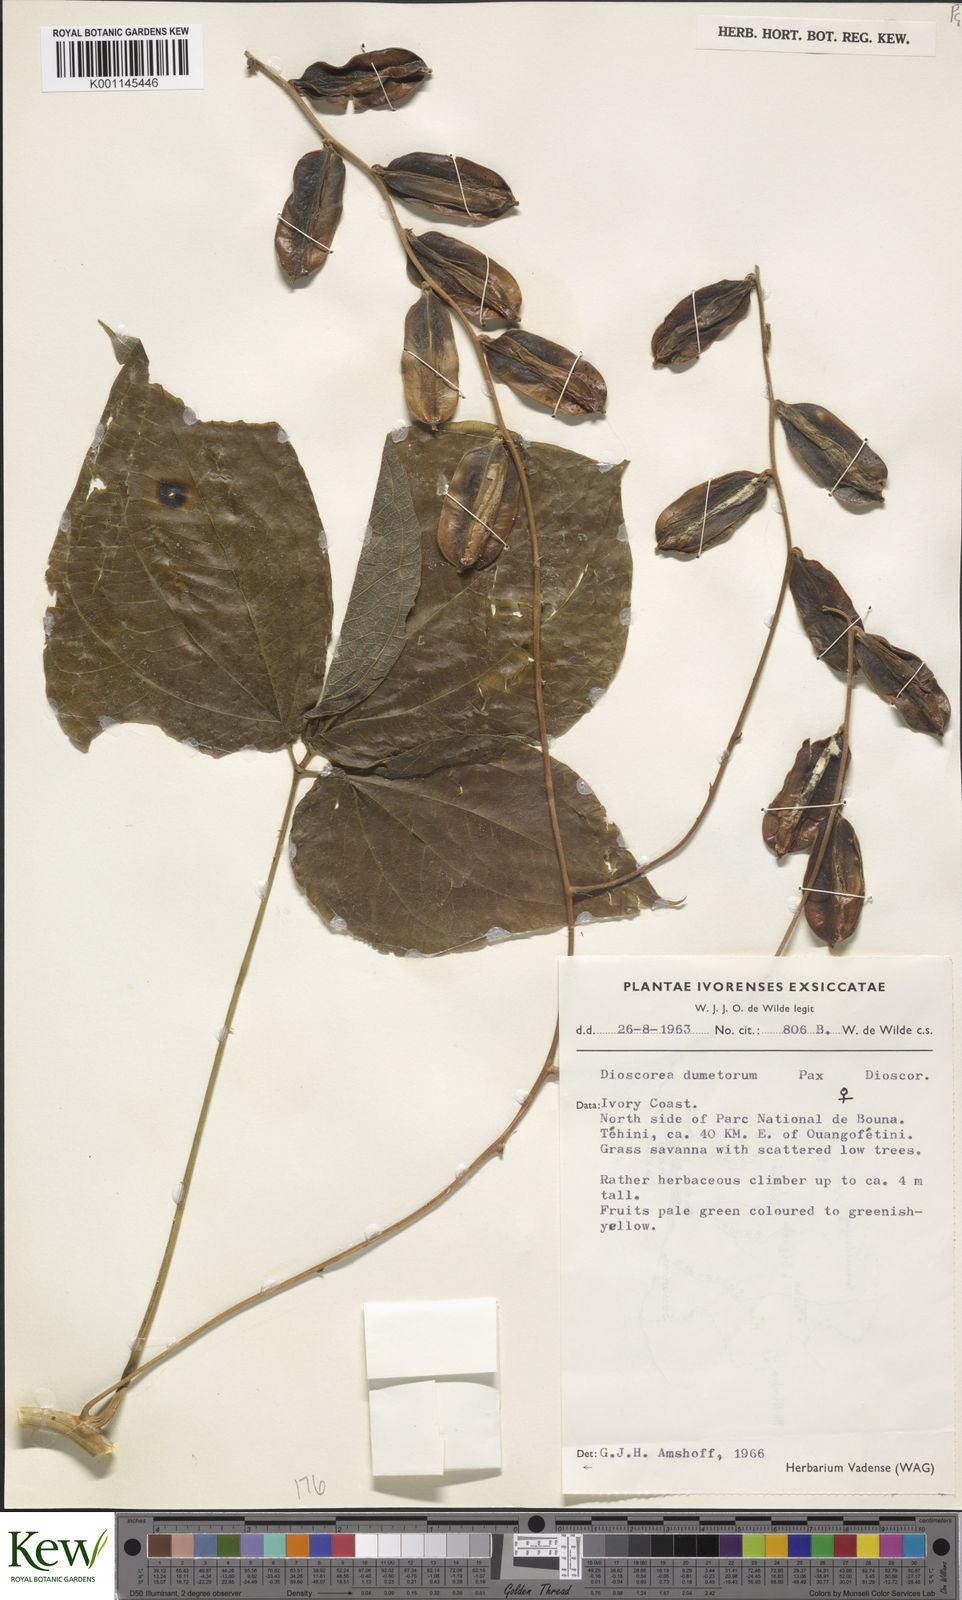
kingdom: Plantae
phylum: Tracheophyta
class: Liliopsida
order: Dioscoreales
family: Dioscoreaceae
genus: Dioscorea
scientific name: Dioscorea dumetorum
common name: African bitter yam
